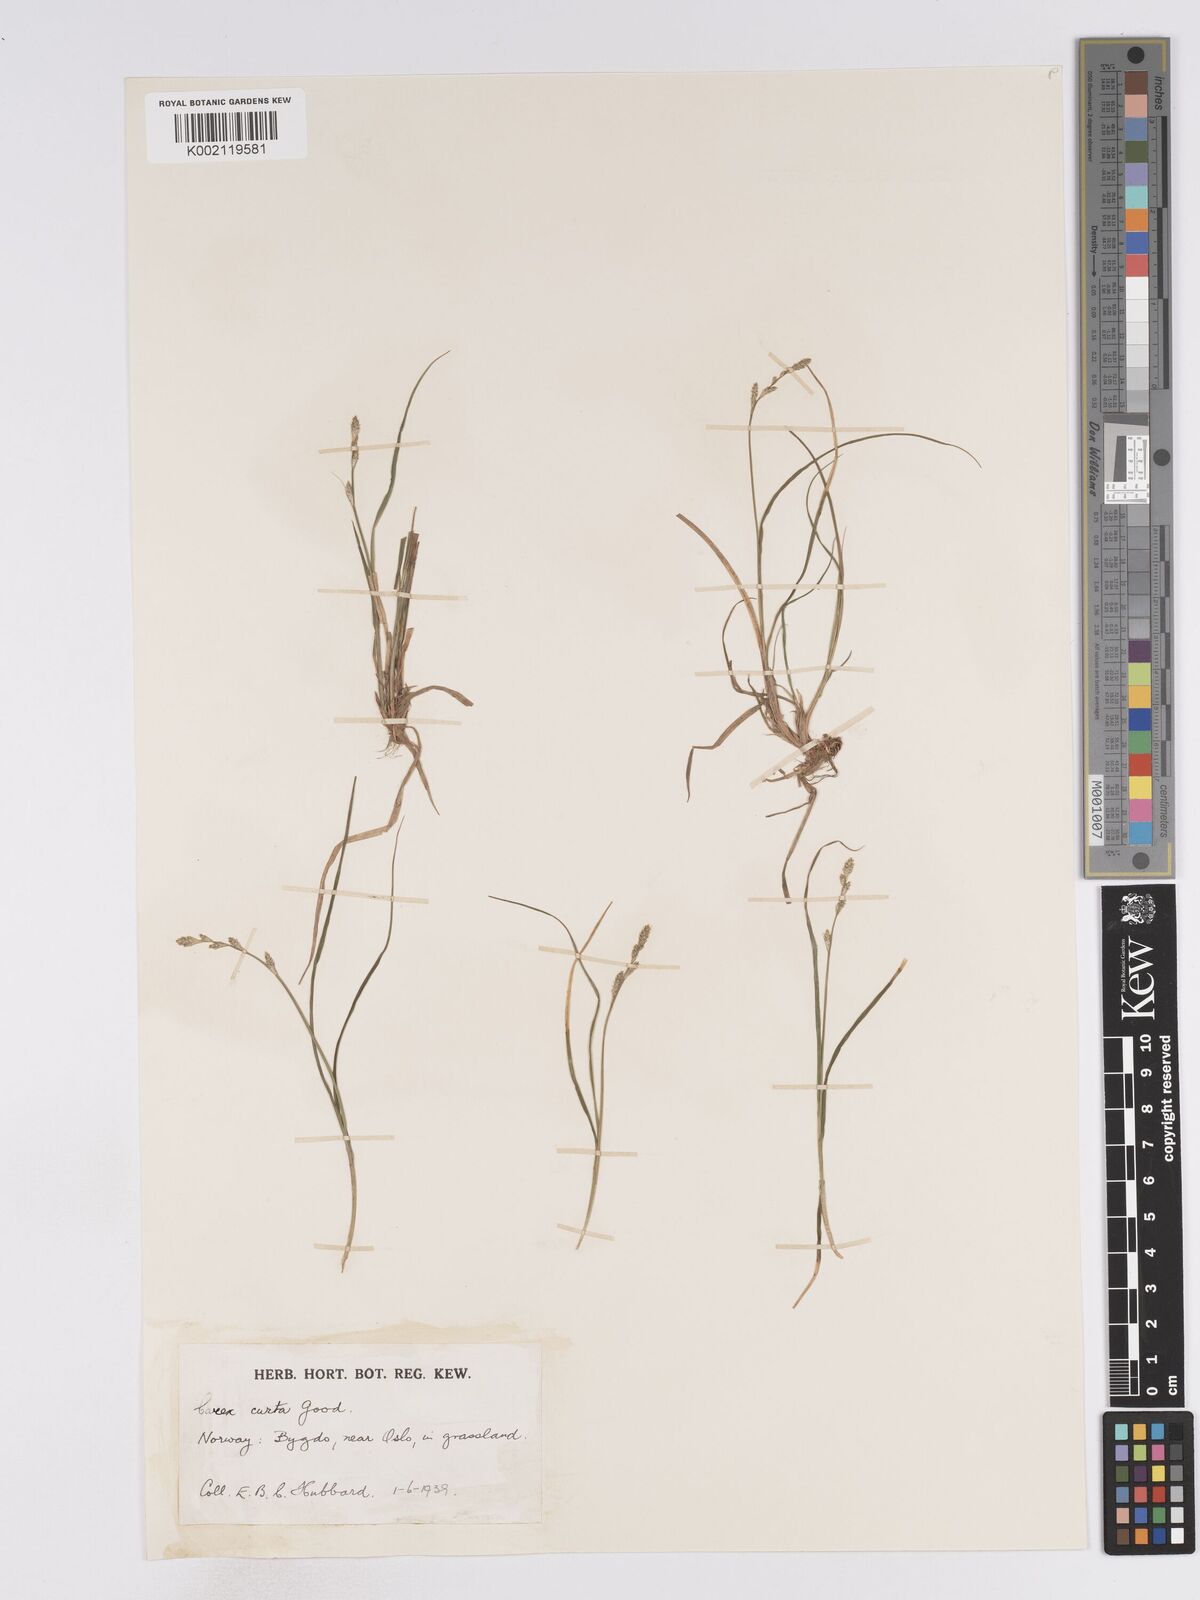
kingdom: Plantae
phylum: Tracheophyta
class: Liliopsida
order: Poales
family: Cyperaceae
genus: Carex
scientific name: Carex curta
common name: White sedge
